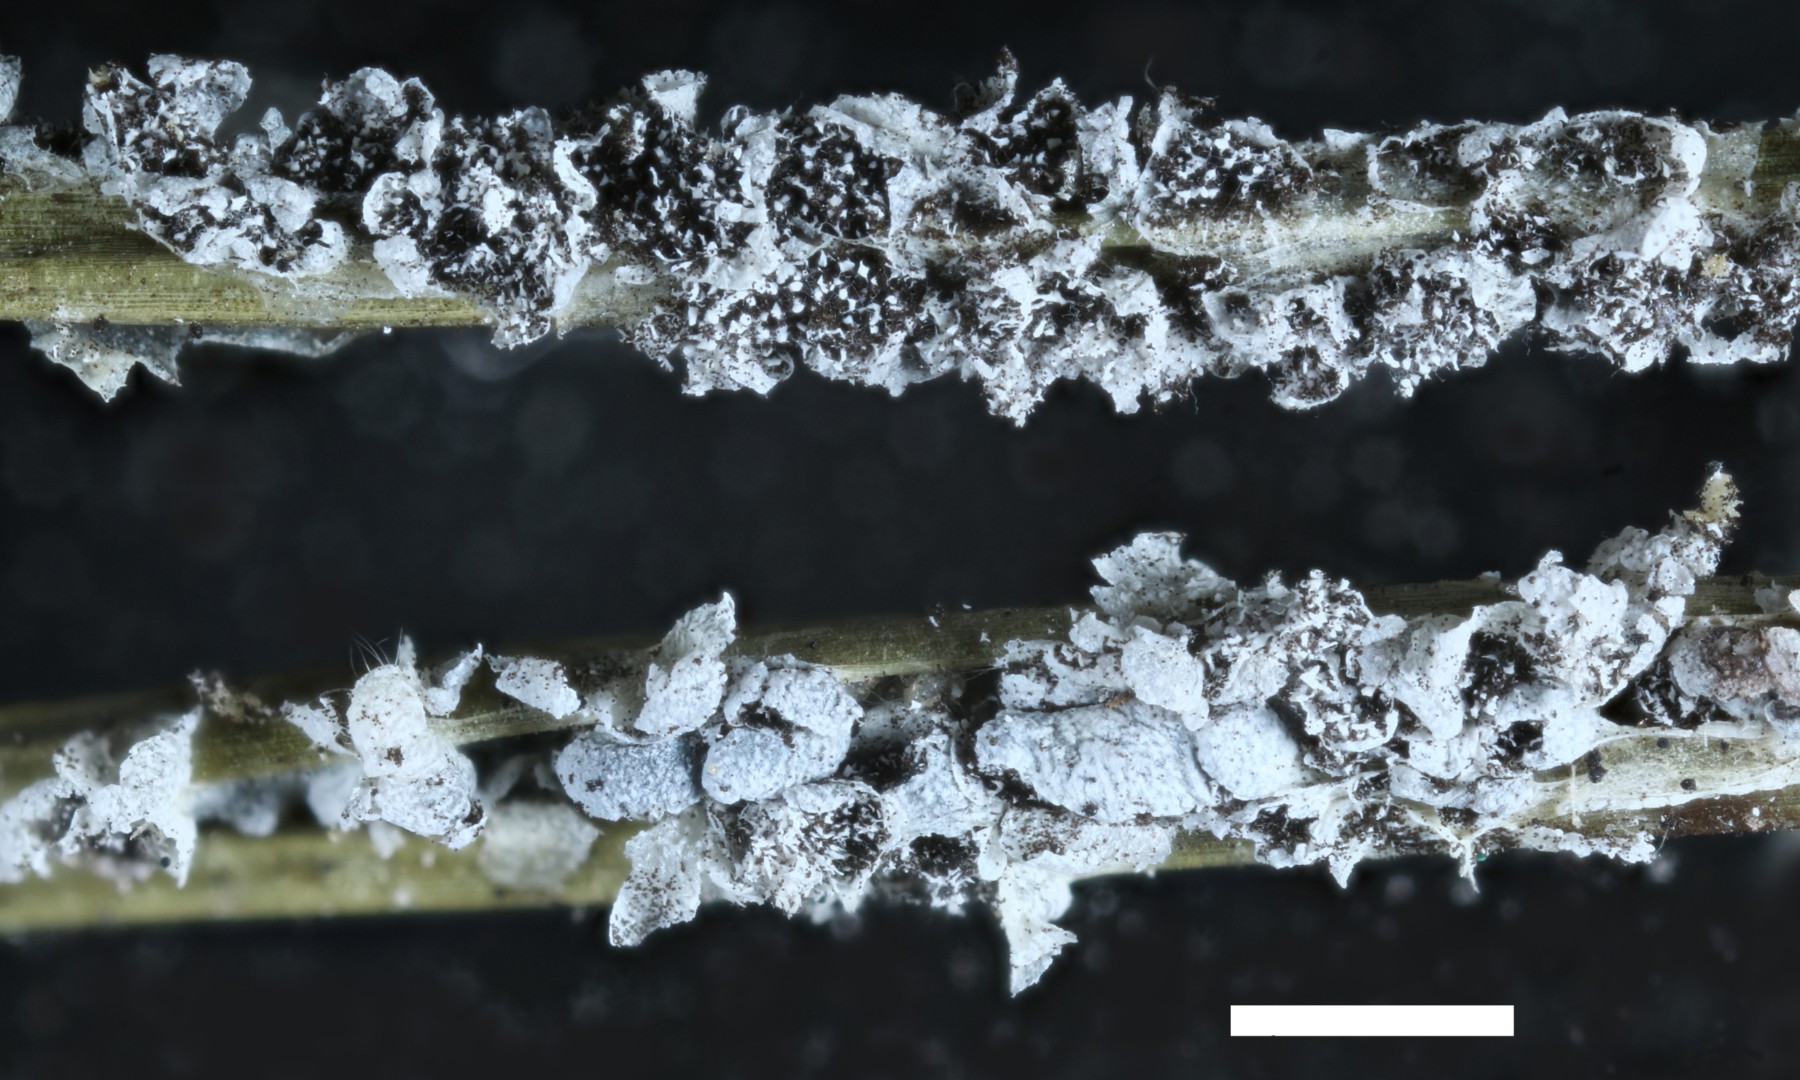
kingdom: Protozoa
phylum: Mycetozoa
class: Myxomycetes
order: Physarales
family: Physaraceae
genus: Physarum
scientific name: Physarum cinereum
